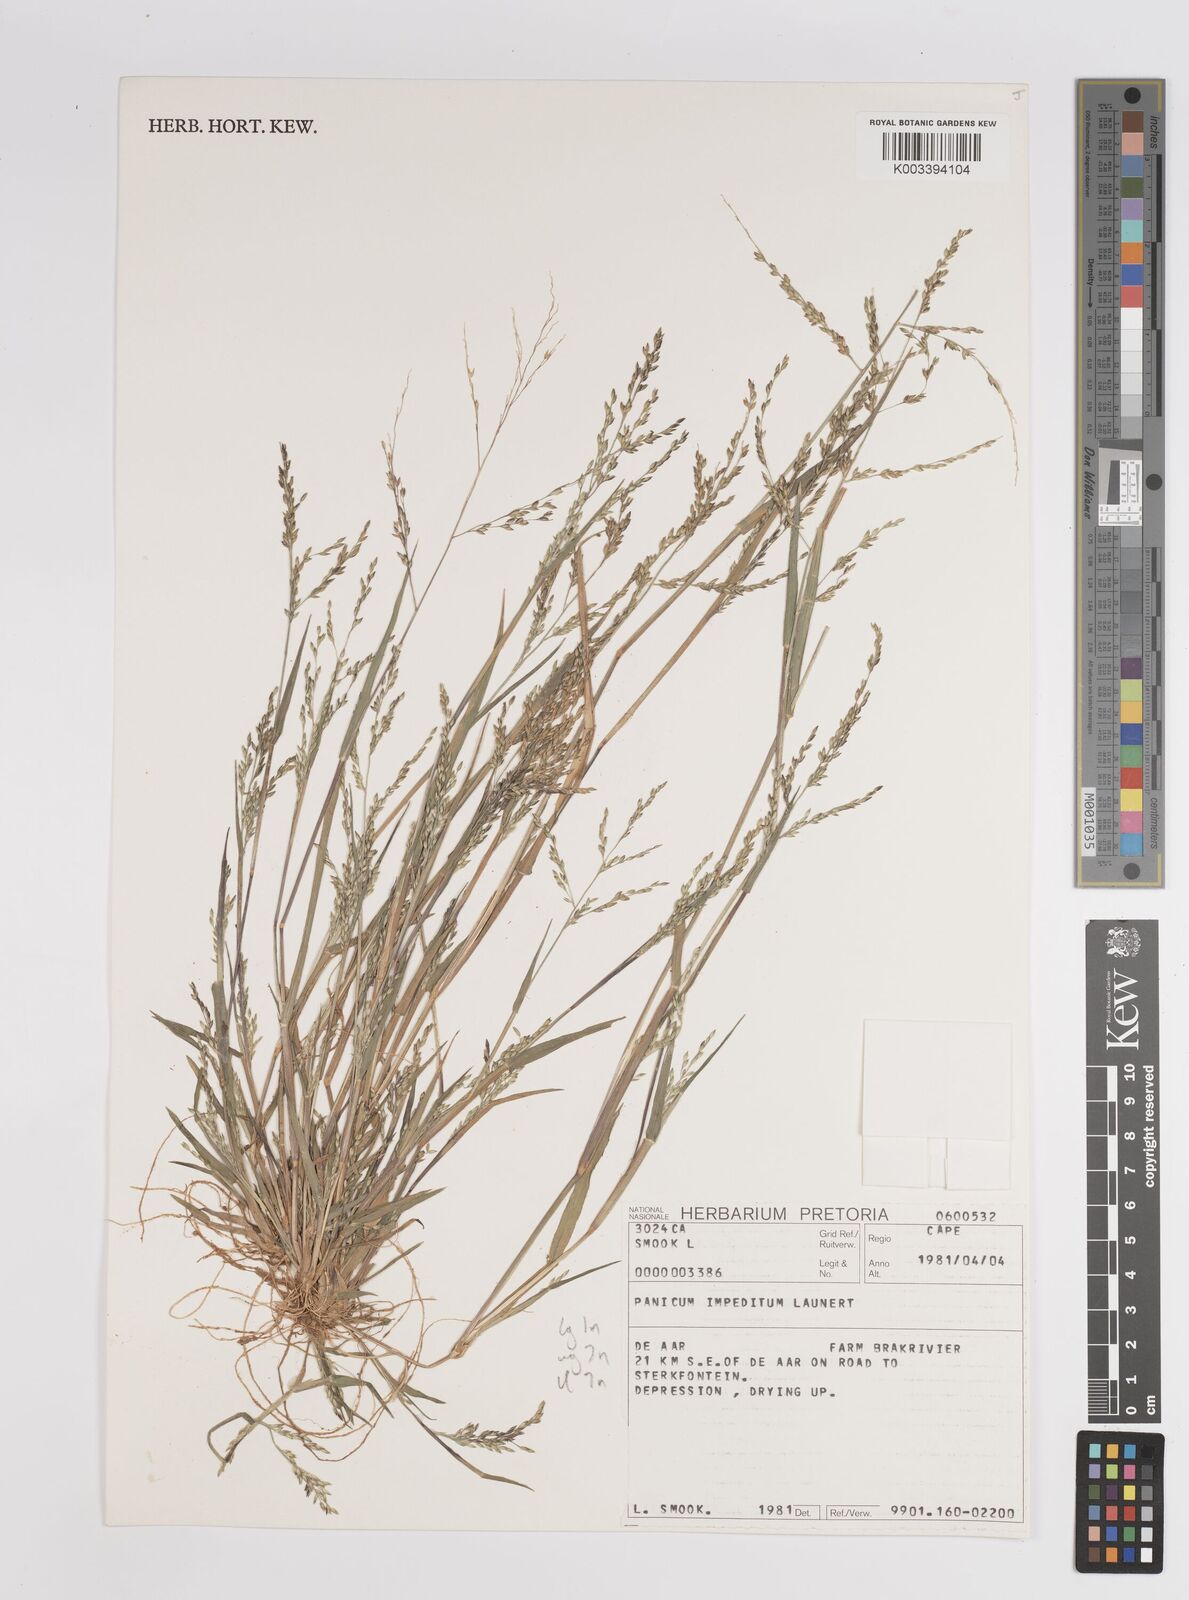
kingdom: Plantae
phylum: Tracheophyta
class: Liliopsida
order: Poales
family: Poaceae
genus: Panicum
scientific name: Panicum impeditum
